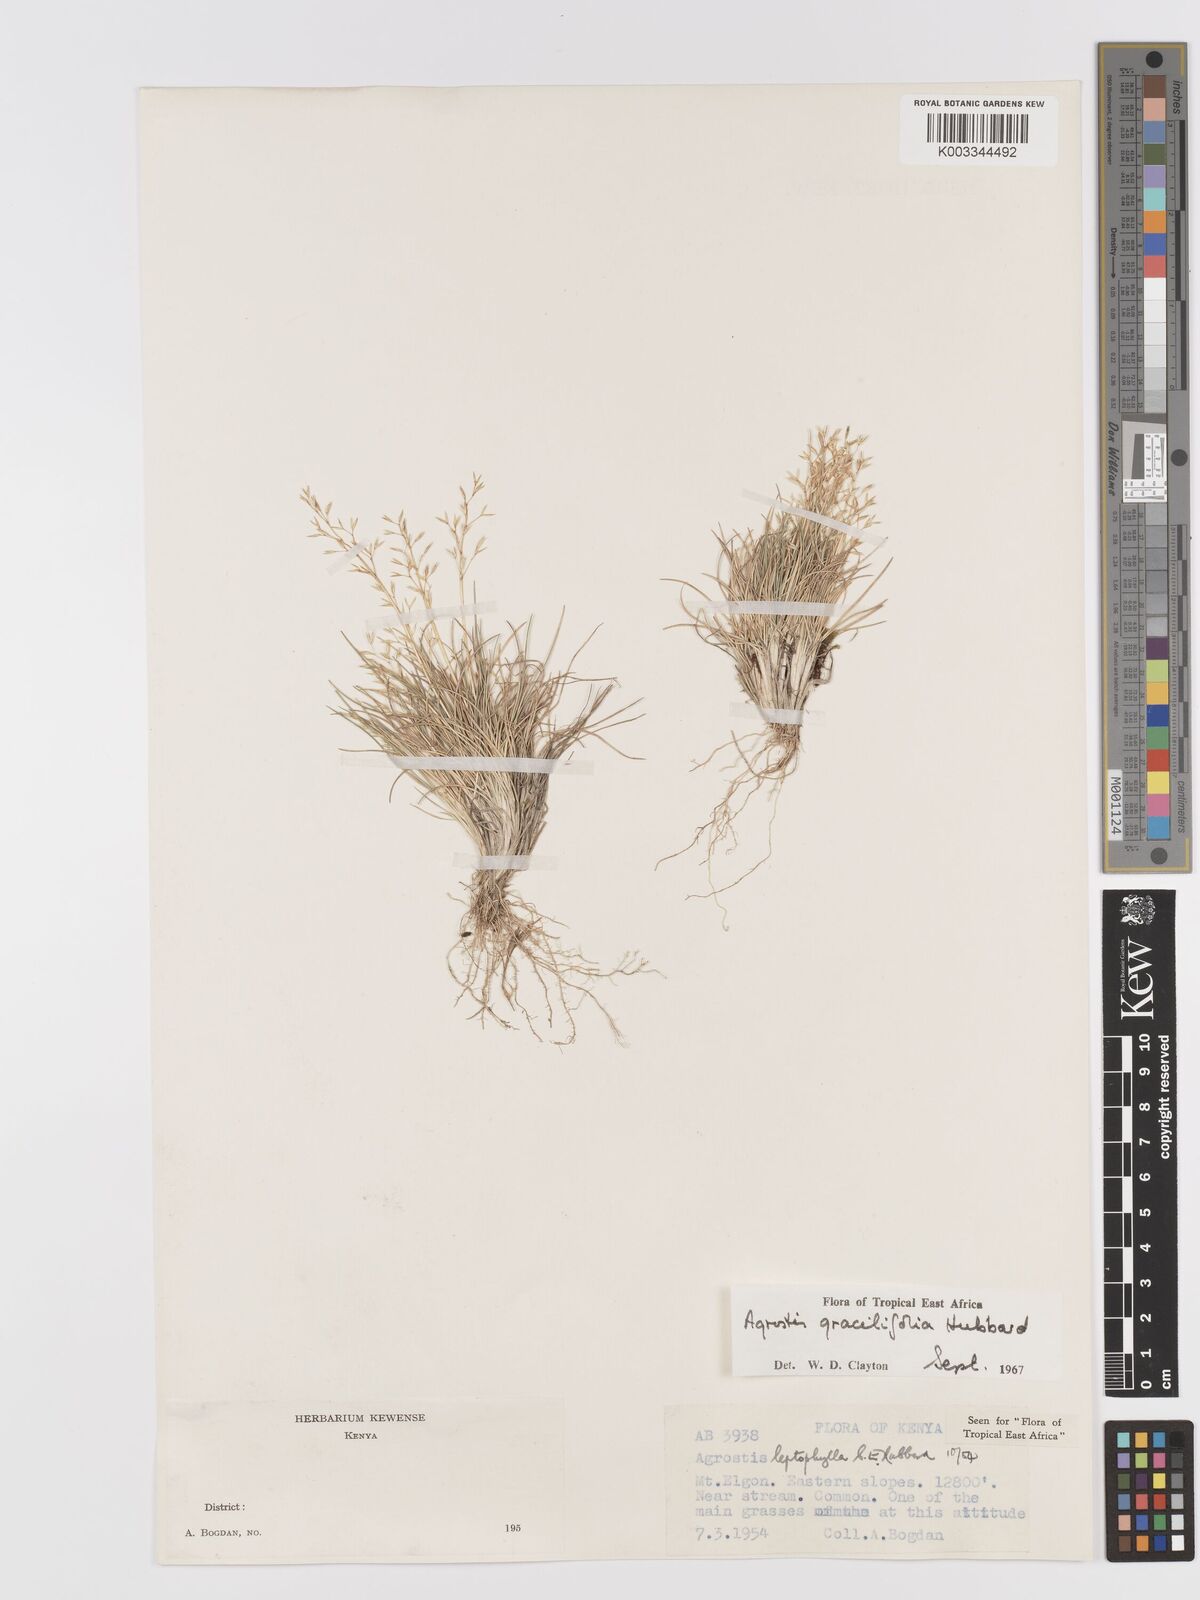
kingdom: Plantae
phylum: Tracheophyta
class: Liliopsida
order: Poales
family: Poaceae
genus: Agrostis
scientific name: Agrostis gracilifolia
